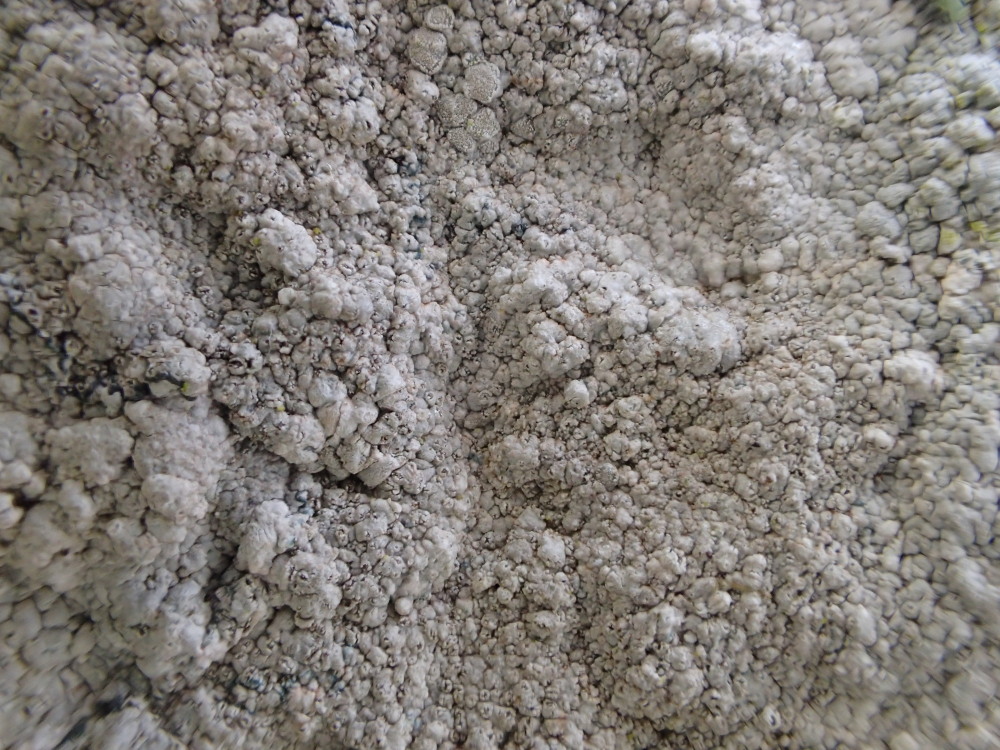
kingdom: Fungi
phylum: Ascomycota
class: Lecanoromycetes
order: Lecanorales
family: Lecanoraceae
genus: Glaucomaria
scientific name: Glaucomaria rupicola
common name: stengærde-kantskivelav
